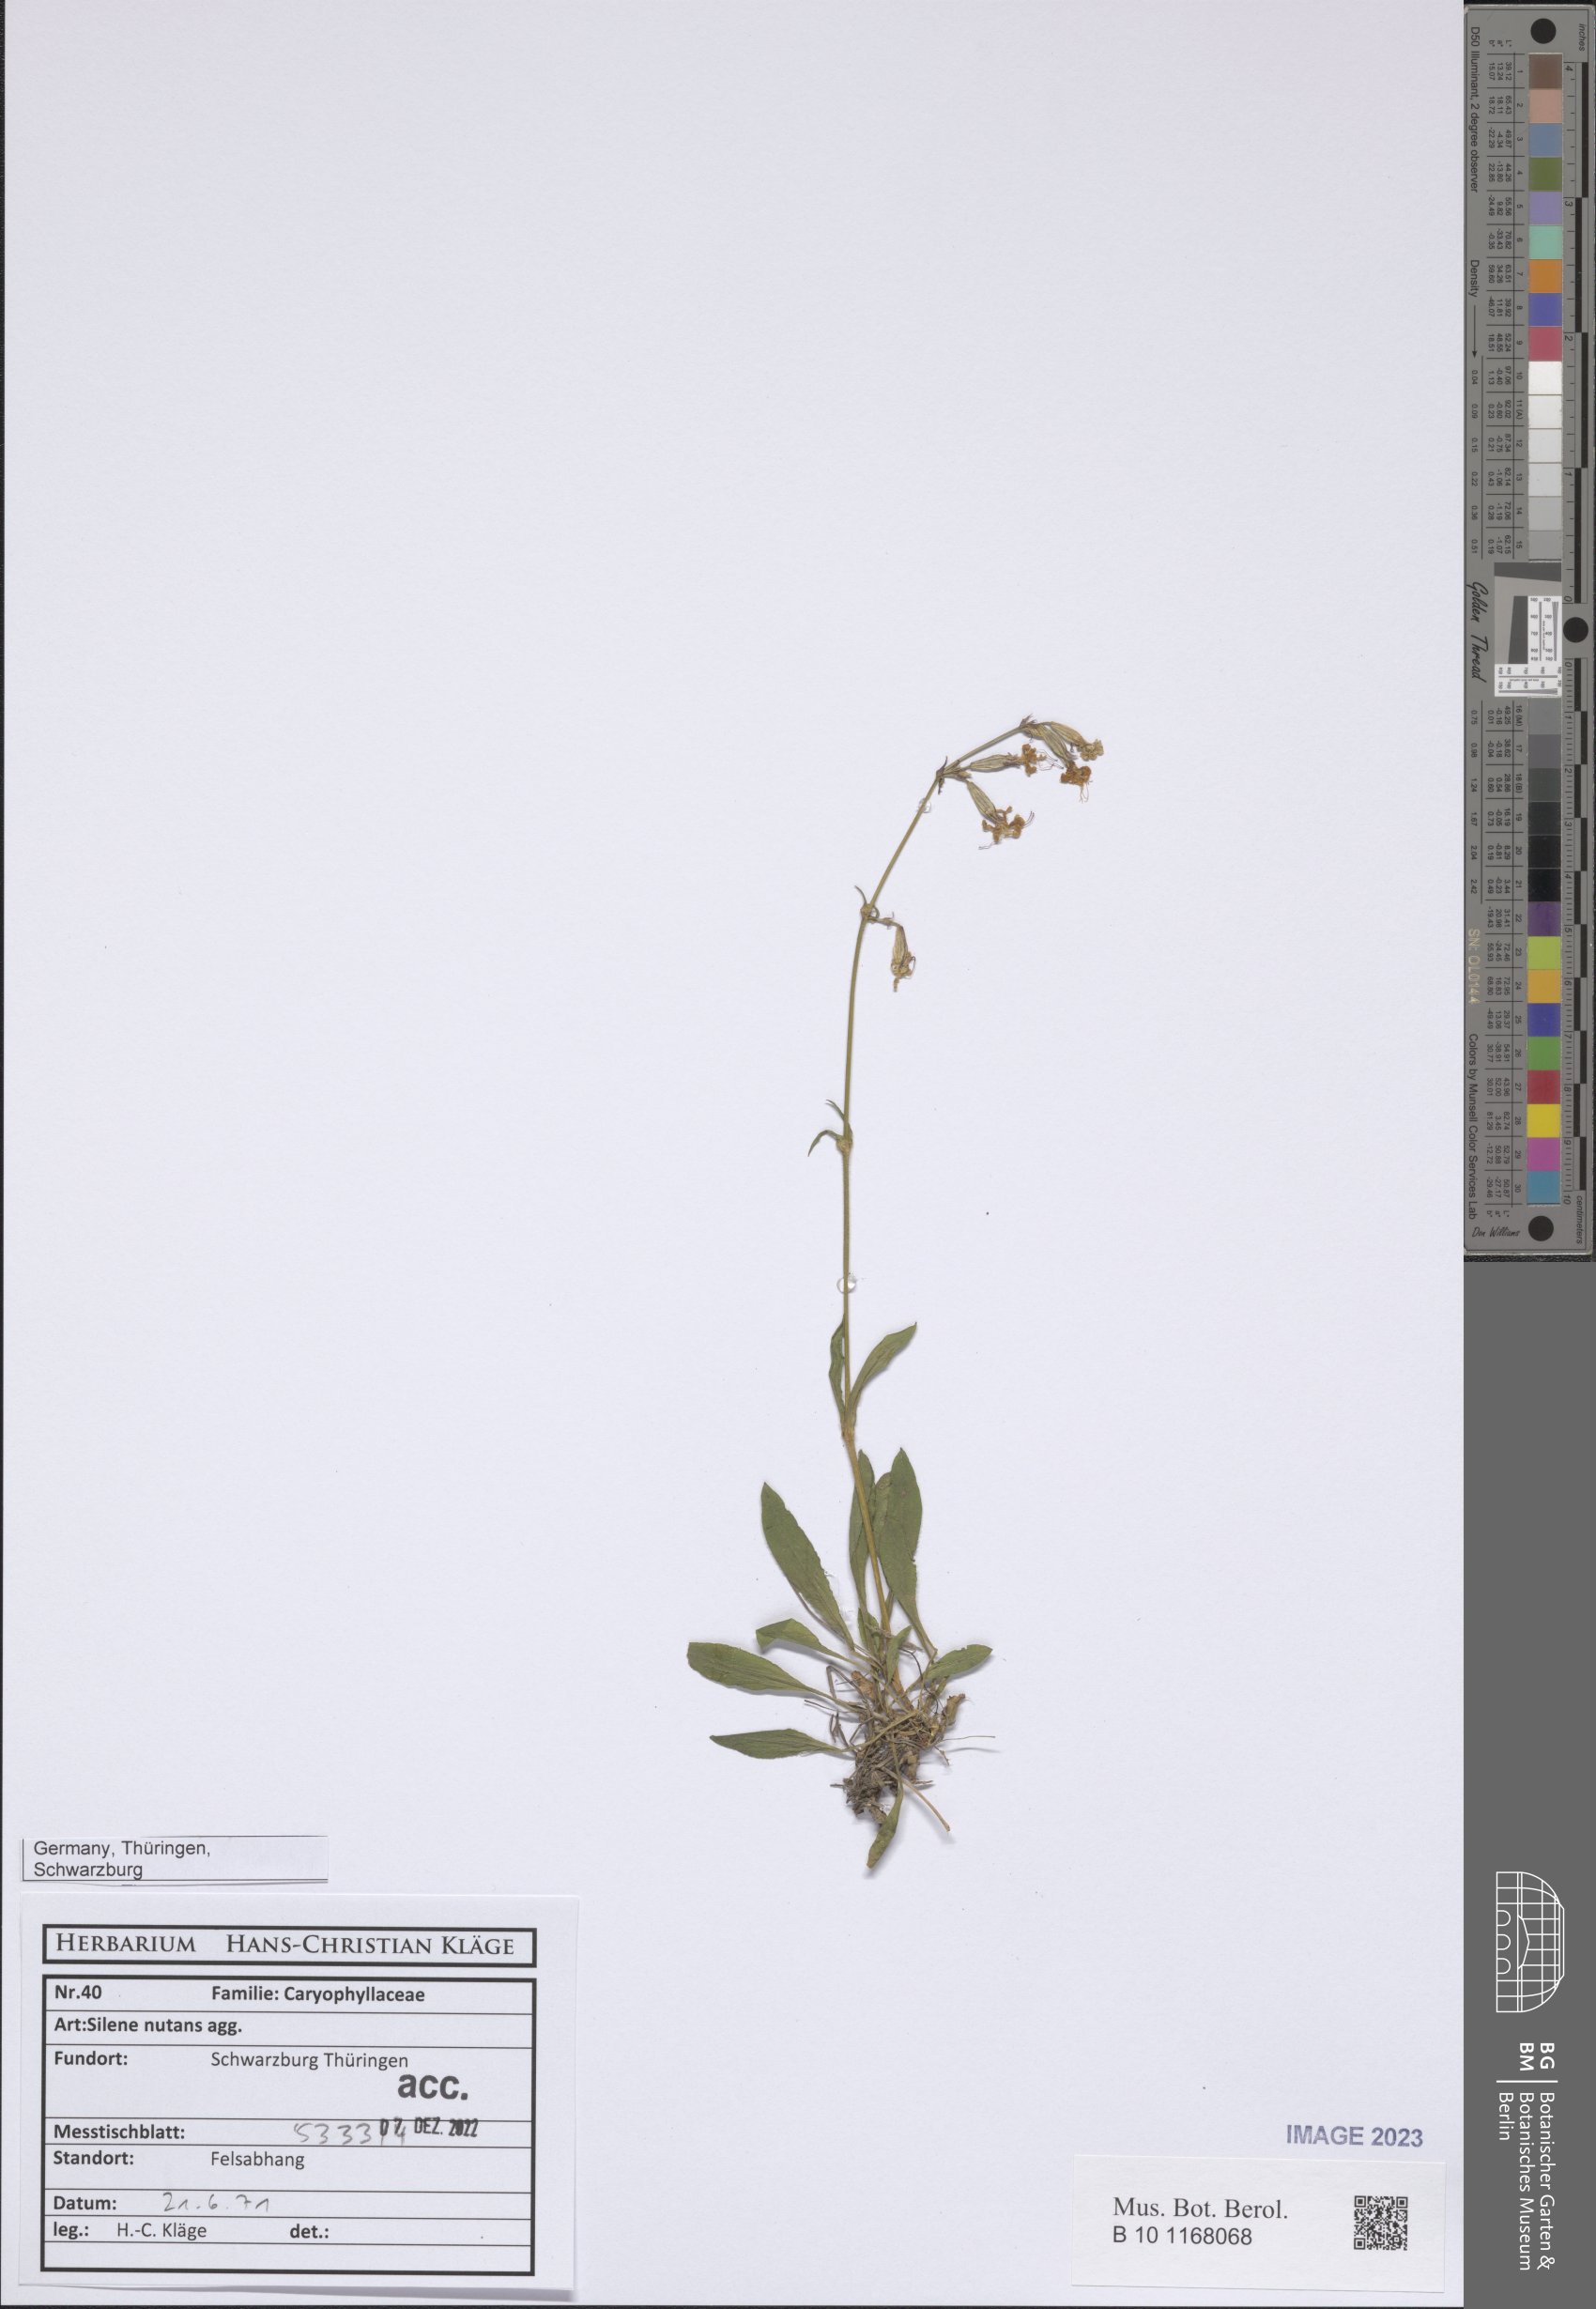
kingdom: Plantae
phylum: Tracheophyta
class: Magnoliopsida
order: Caryophyllales
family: Caryophyllaceae
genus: Silene
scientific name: Silene nutans
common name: Nottingham catchfly
